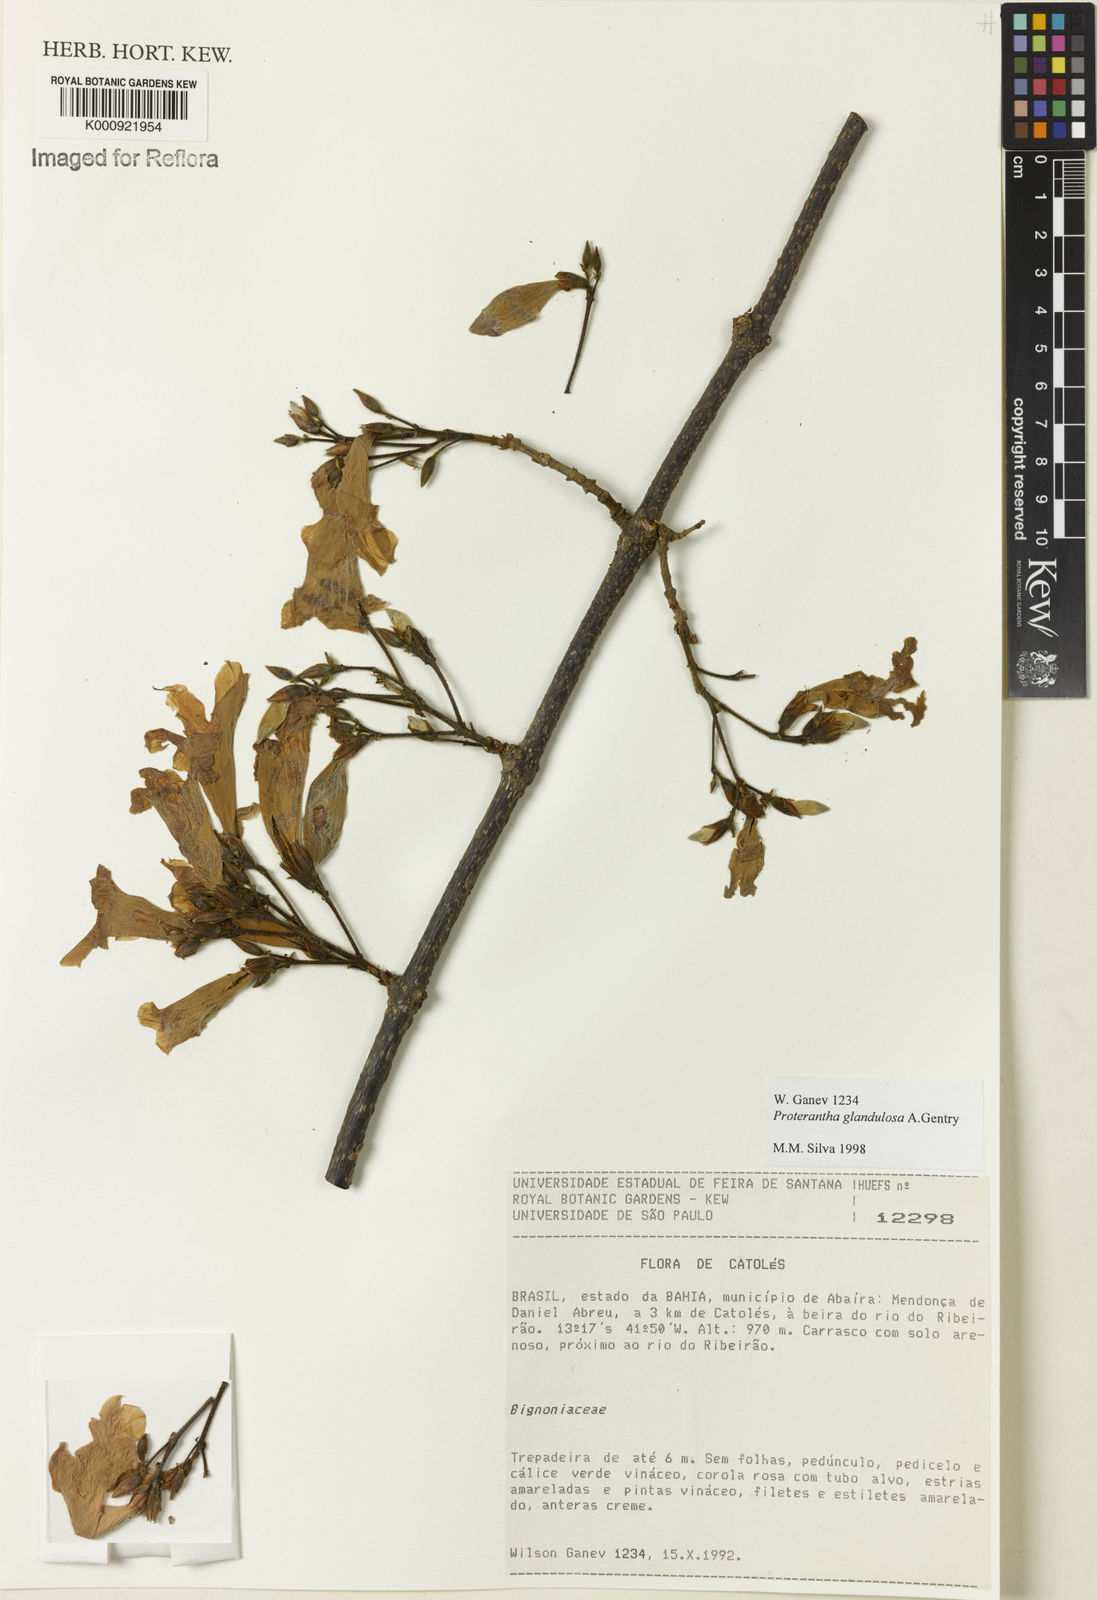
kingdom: Plantae
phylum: Tracheophyta
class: Magnoliopsida
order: Lamiales
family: Bignoniaceae
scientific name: Bignoniaceae
